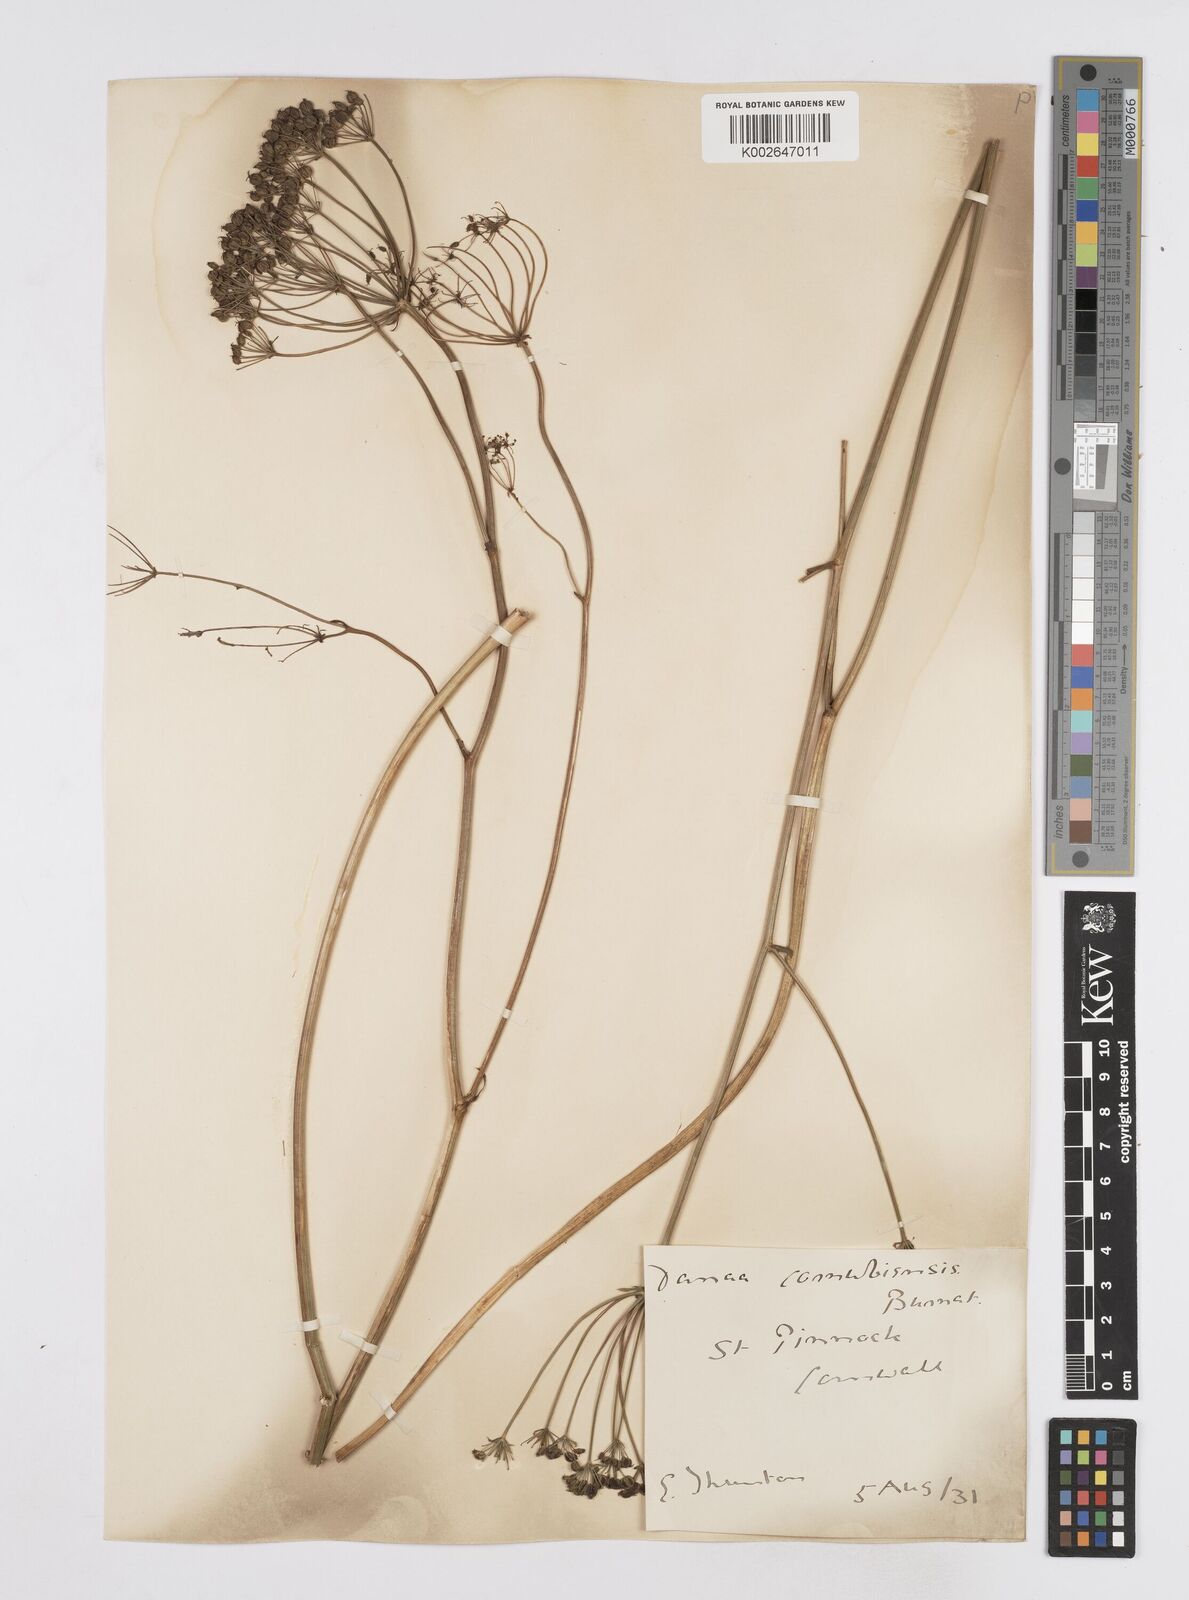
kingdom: Plantae
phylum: Tracheophyta
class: Magnoliopsida
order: Apiales
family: Apiaceae
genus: Physospermum
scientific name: Physospermum cornubiense
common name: Bladderseed
